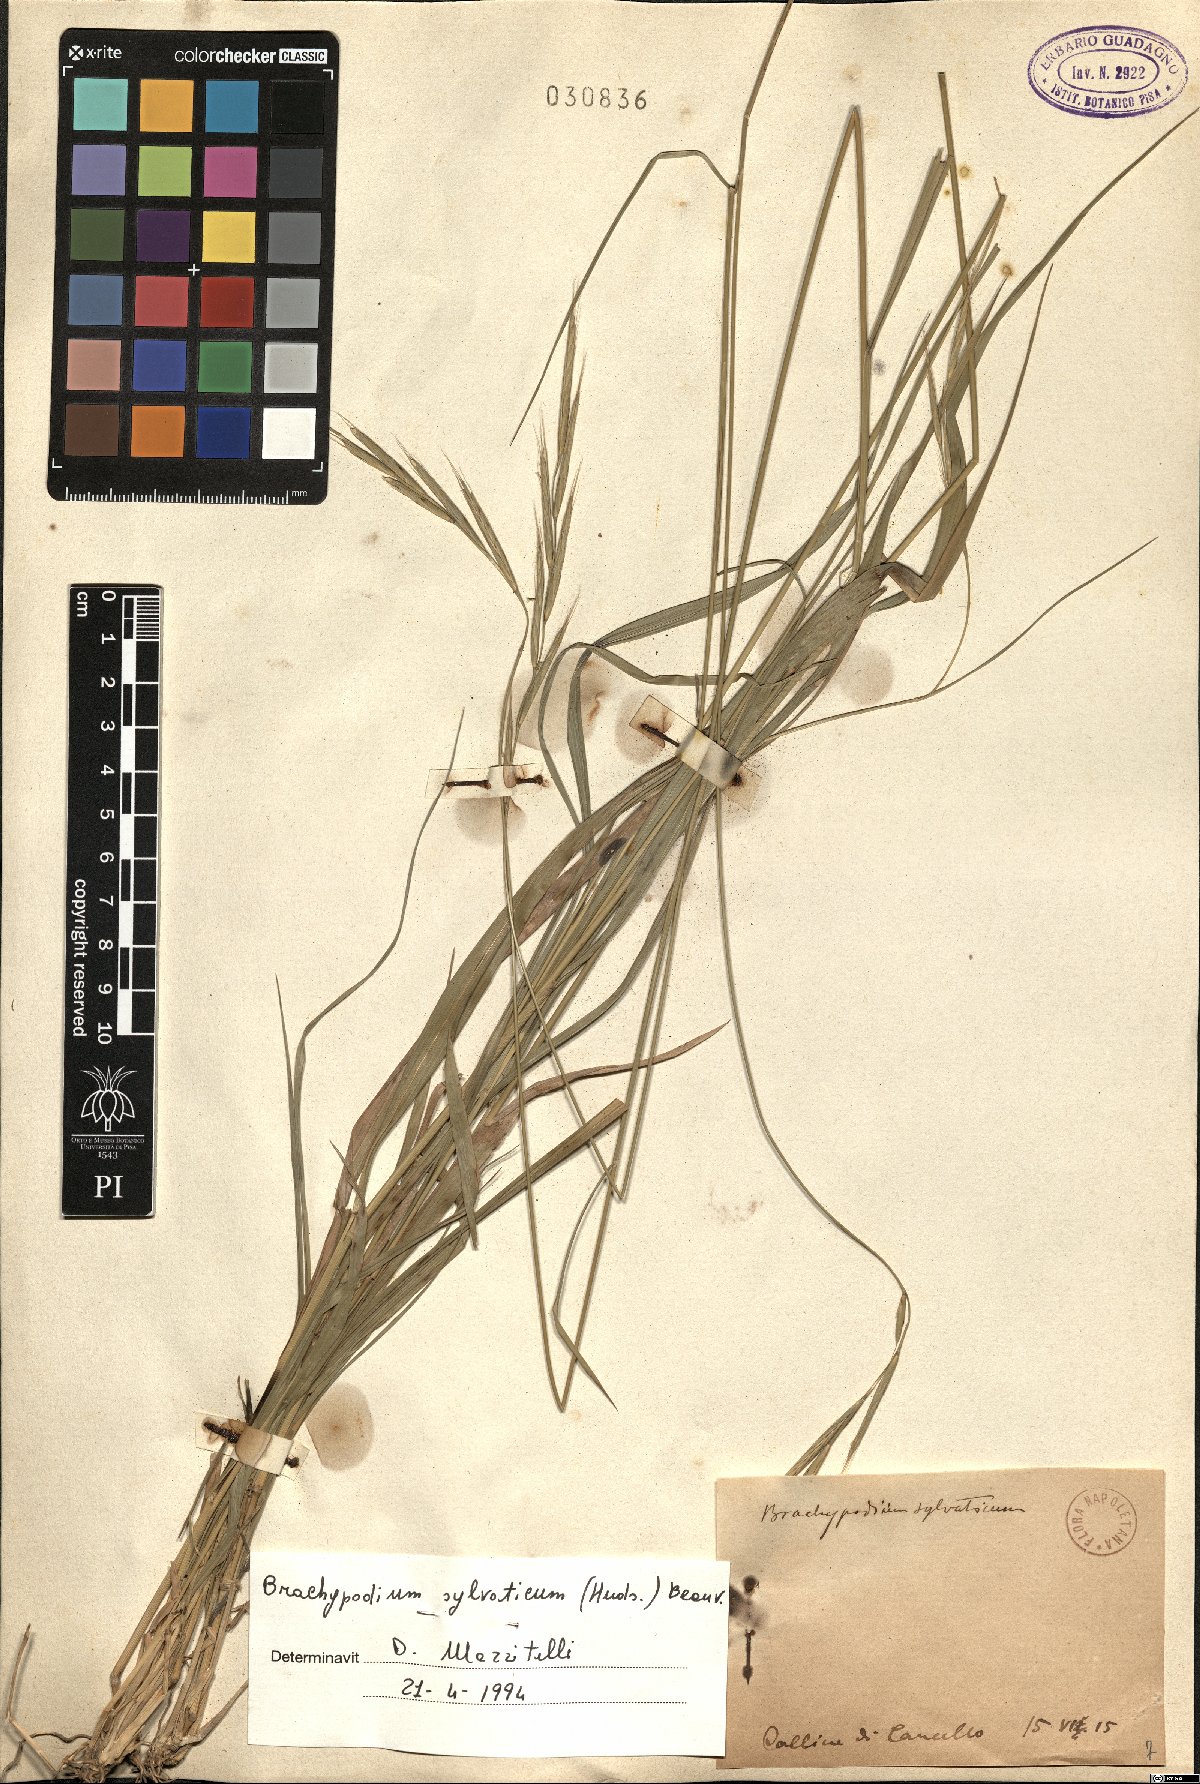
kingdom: Plantae
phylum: Tracheophyta
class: Liliopsida
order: Poales
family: Poaceae
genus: Brachypodium
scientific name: Brachypodium sylvaticum
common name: False-brome
